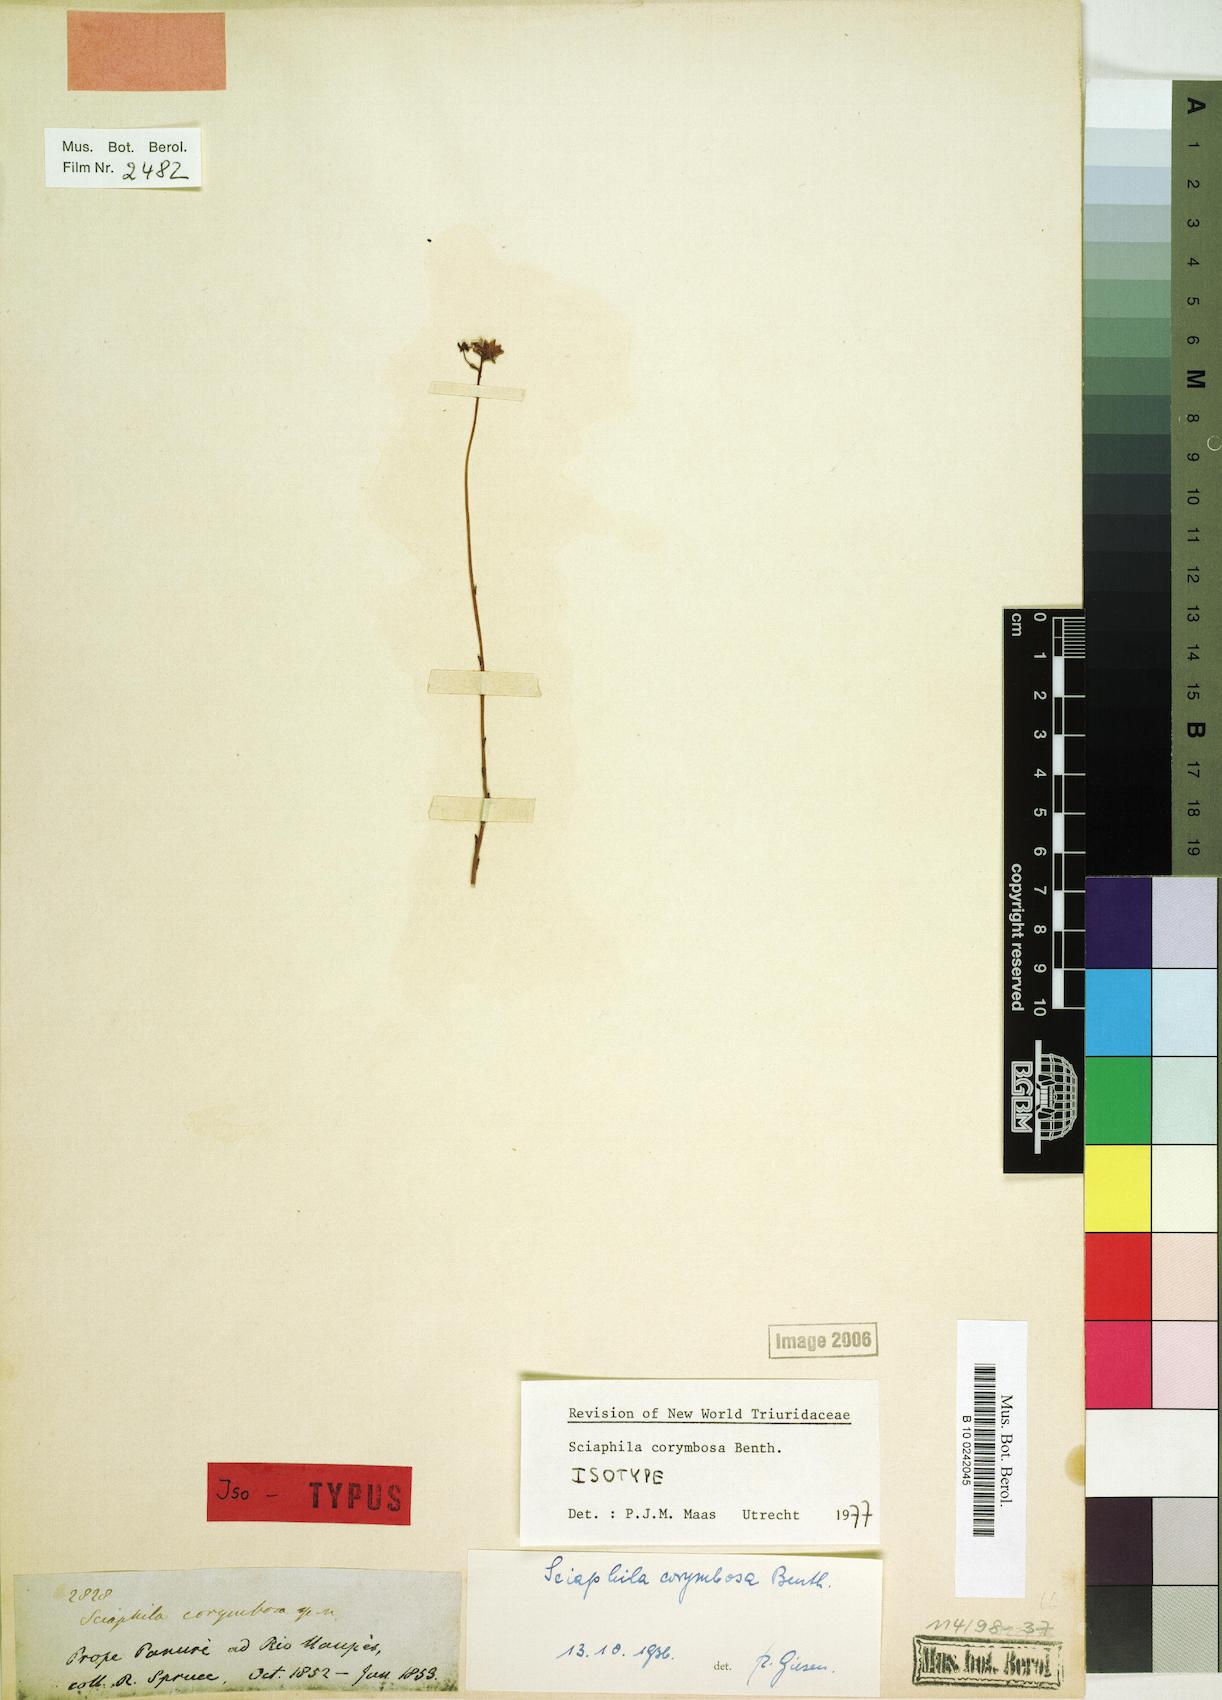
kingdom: Plantae
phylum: Tracheophyta
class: Liliopsida
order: Pandanales
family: Triuridaceae
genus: Sciaphila
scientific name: Sciaphila corymbosa
